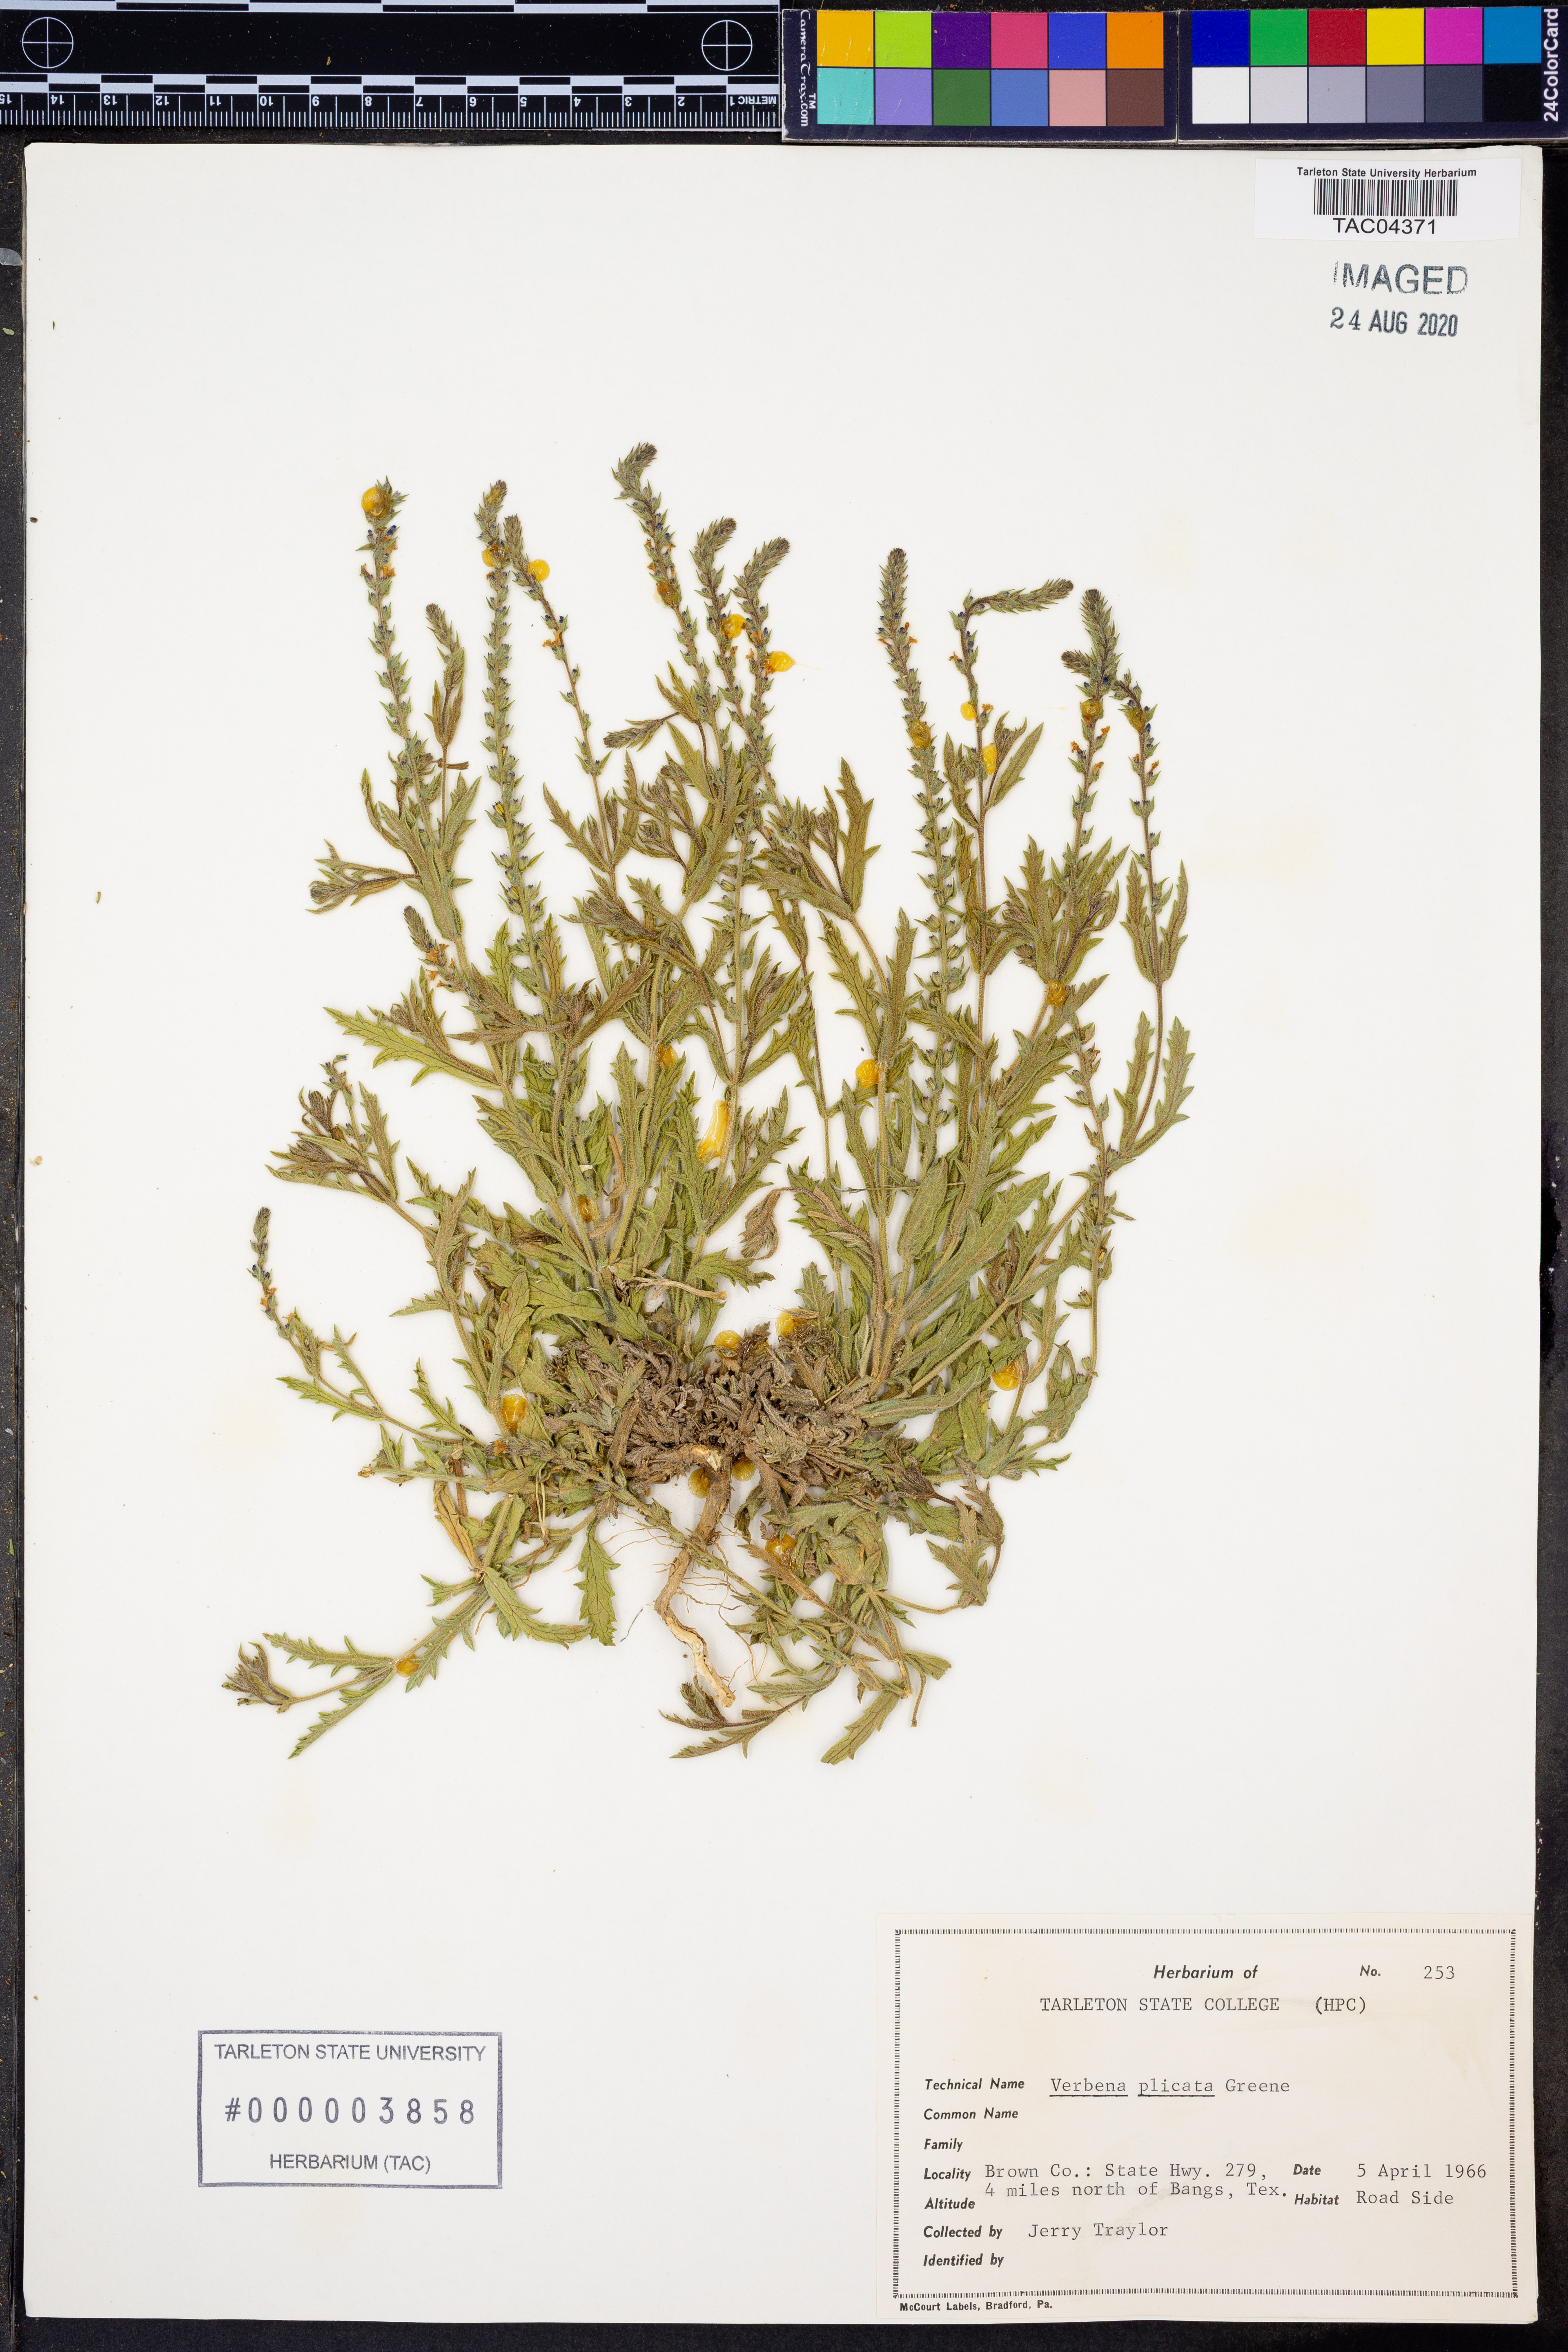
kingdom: Plantae
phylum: Tracheophyta
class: Magnoliopsida
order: Lamiales
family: Verbenaceae
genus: Verbena
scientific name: Verbena plicata
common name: Fan-leaf vervain
